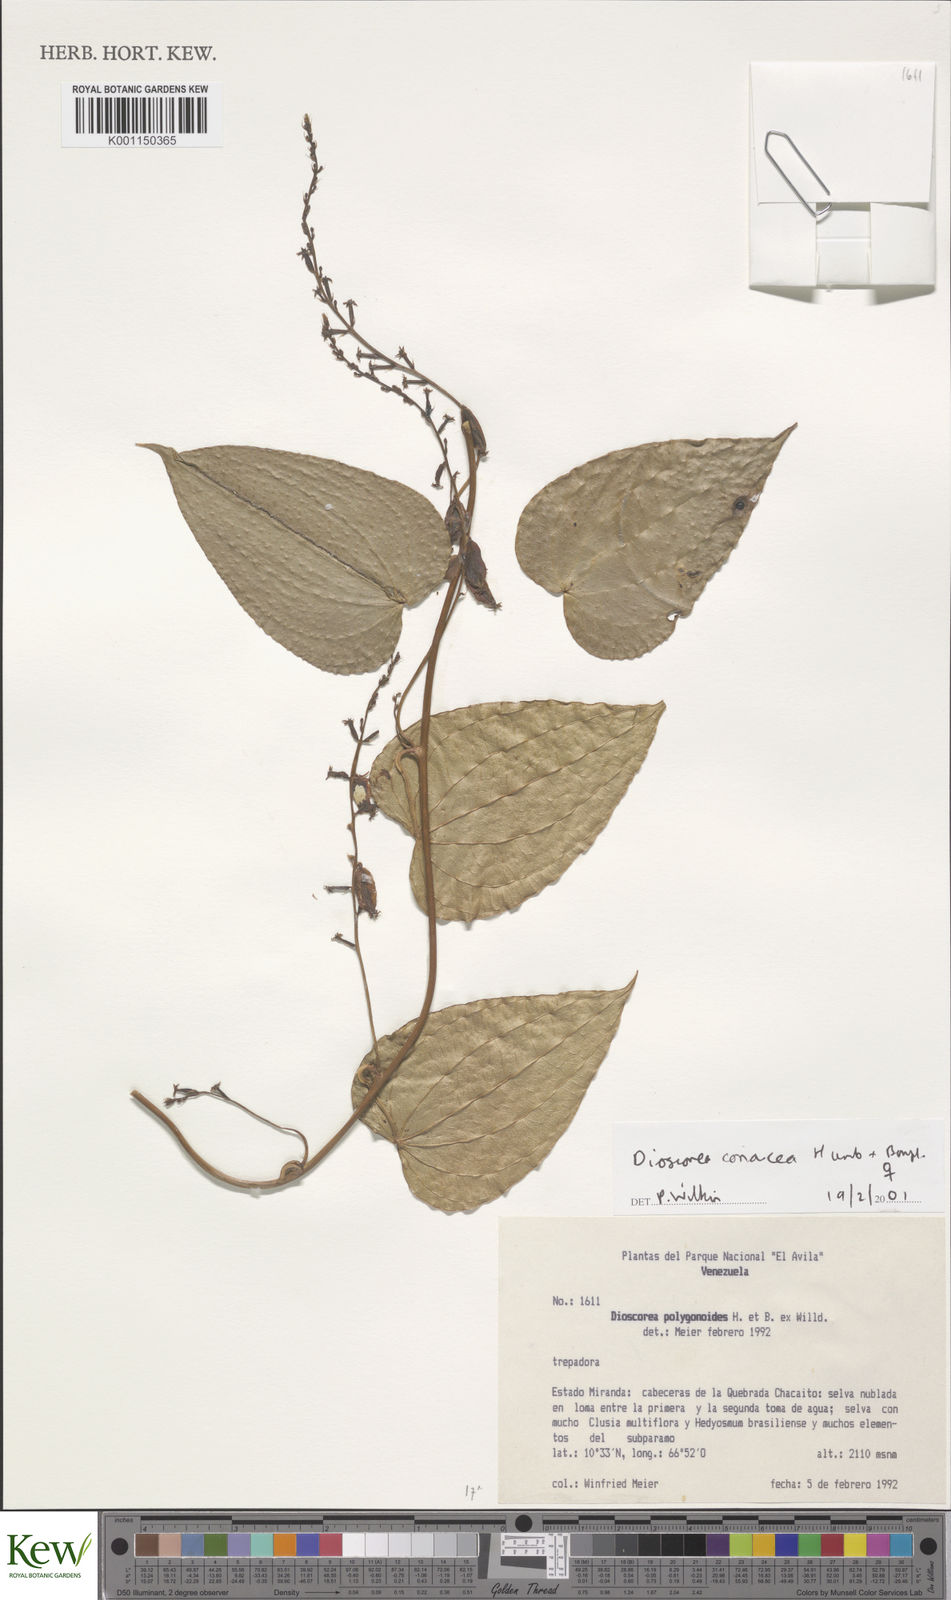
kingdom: Plantae
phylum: Tracheophyta
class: Liliopsida
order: Dioscoreales
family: Dioscoreaceae
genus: Dioscorea
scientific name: Dioscorea coriacea
